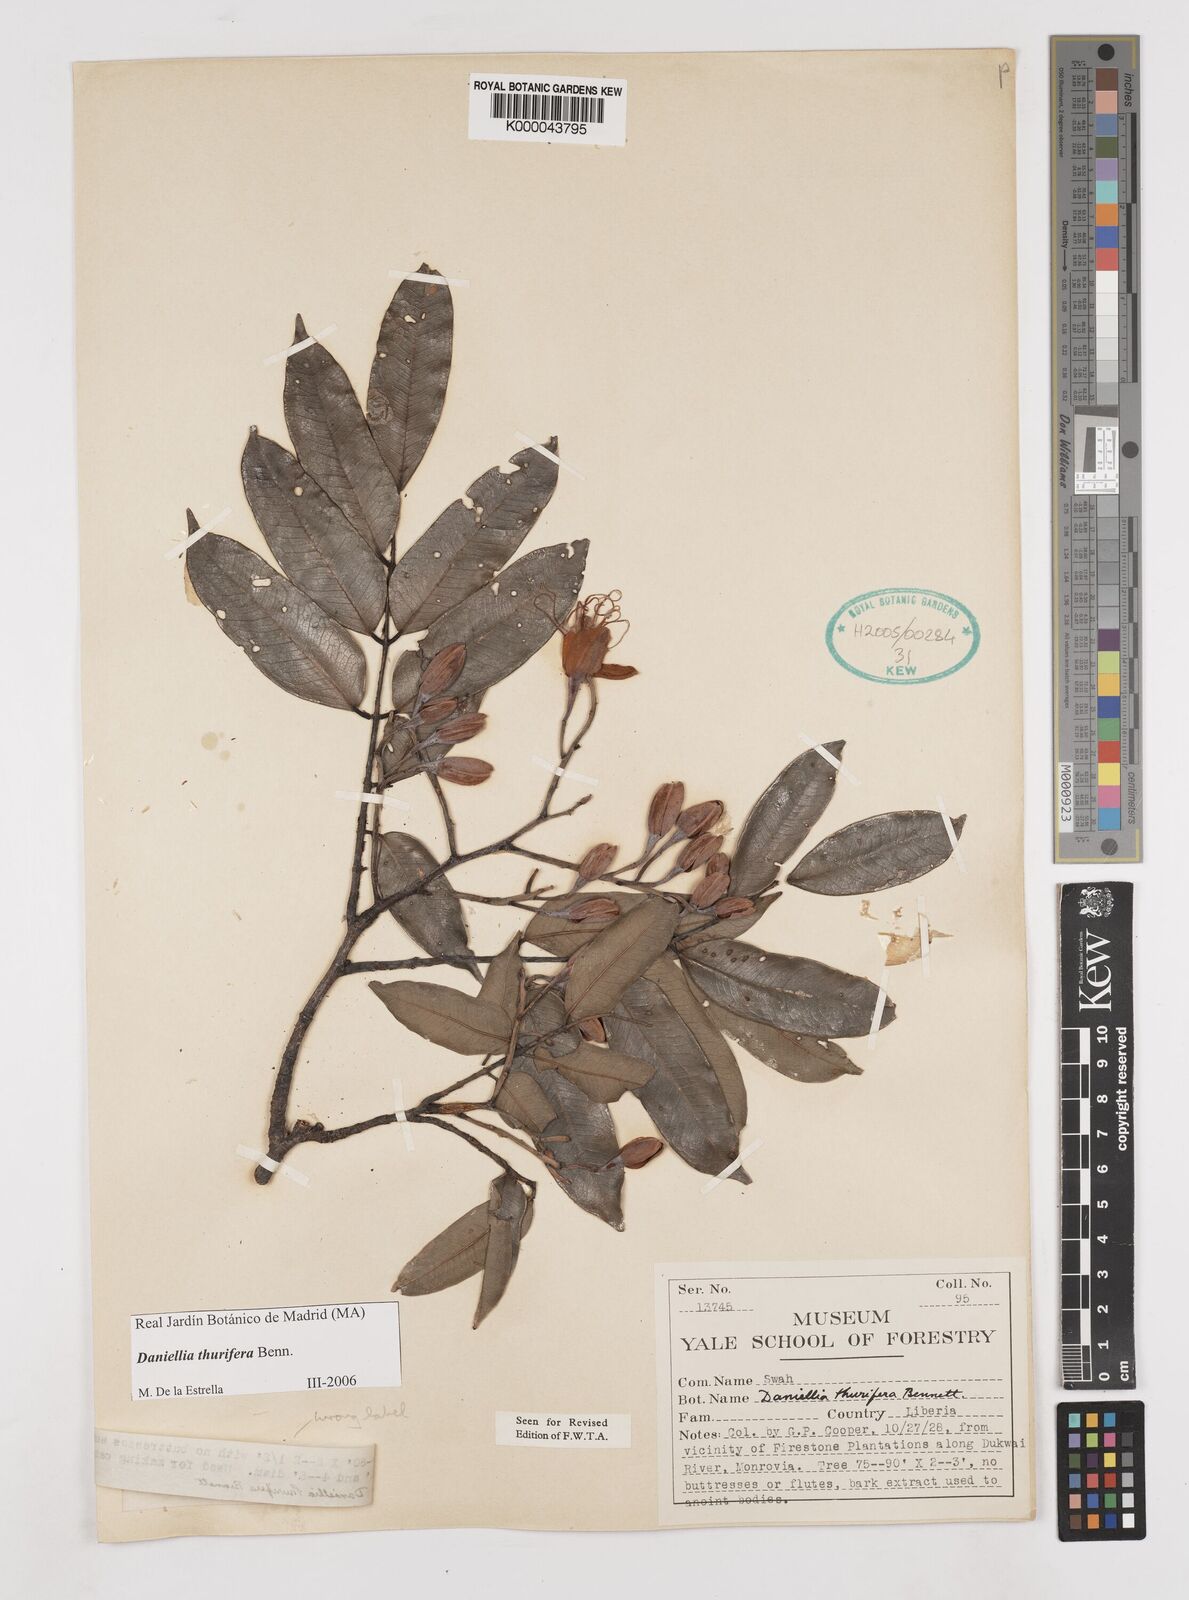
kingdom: Plantae
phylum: Tracheophyta
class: Magnoliopsida
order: Fabales
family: Fabaceae
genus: Daniellia
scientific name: Daniellia thurifera
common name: Sudan copal
